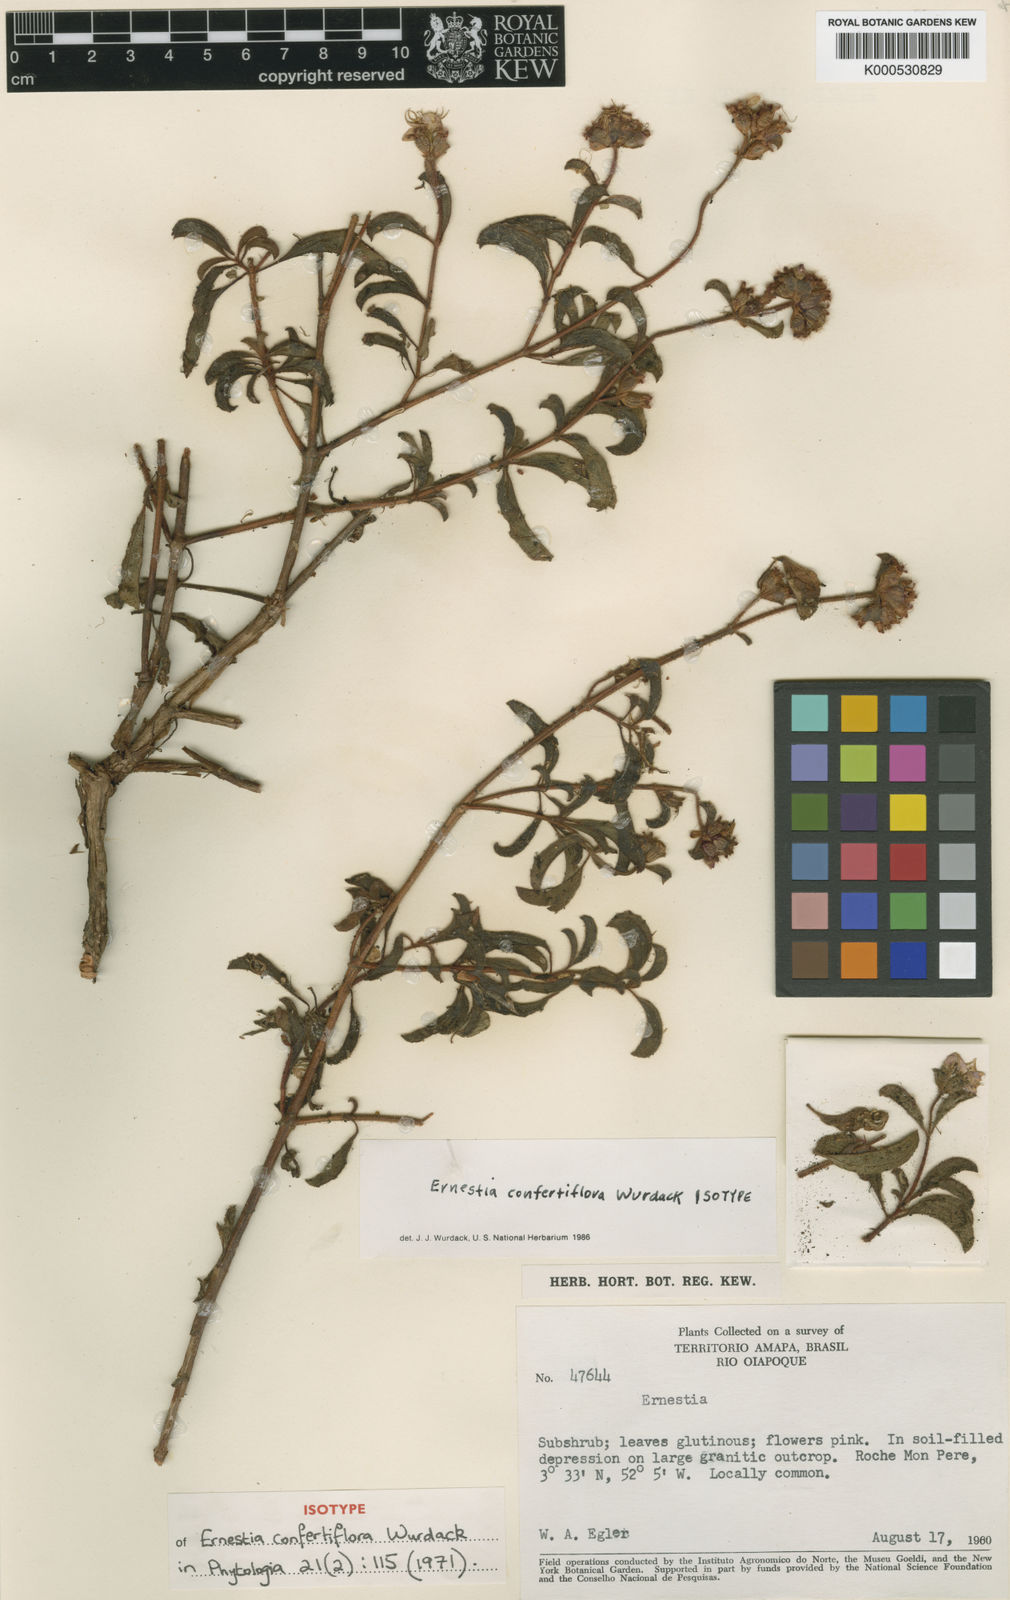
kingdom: Plantae
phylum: Tracheophyta
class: Magnoliopsida
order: Myrtales
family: Melastomataceae
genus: Ernestia
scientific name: Ernestia confertiflora
